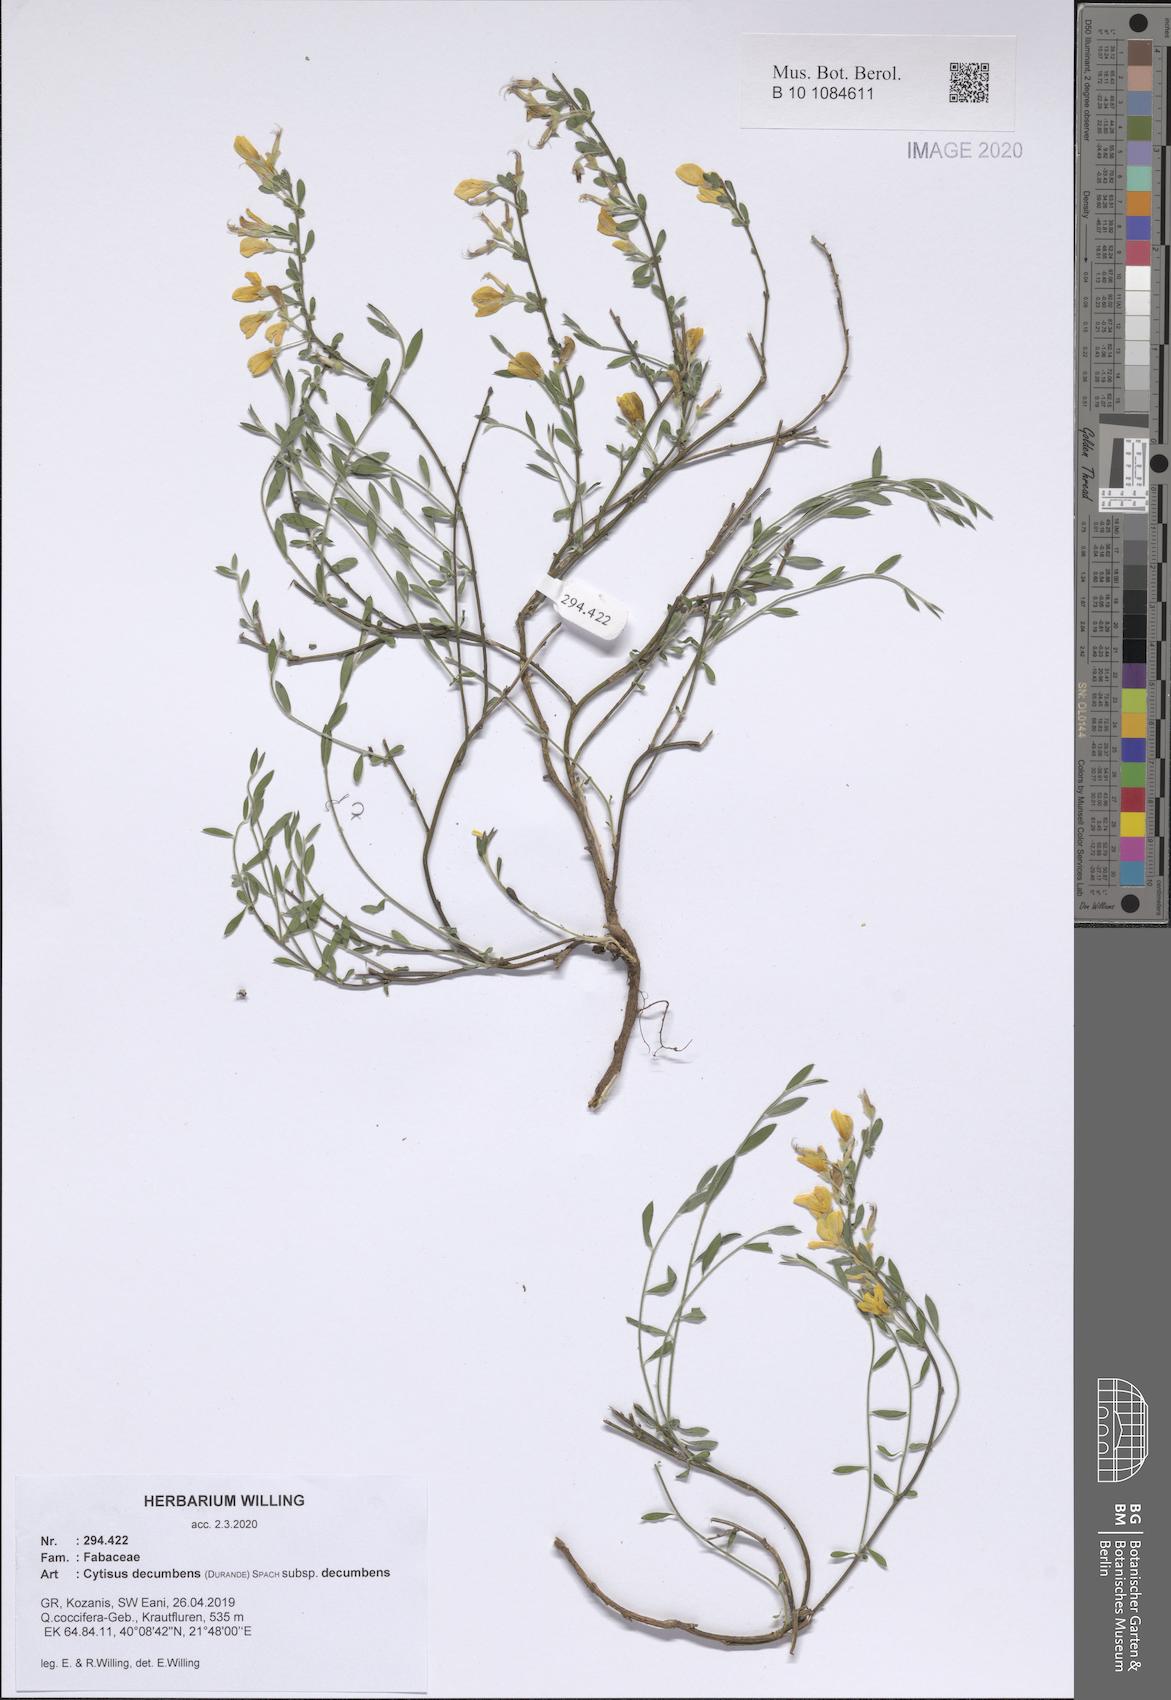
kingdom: Plantae
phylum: Tracheophyta
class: Magnoliopsida
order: Fabales
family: Fabaceae
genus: Cytisus
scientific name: Cytisus decumbens
